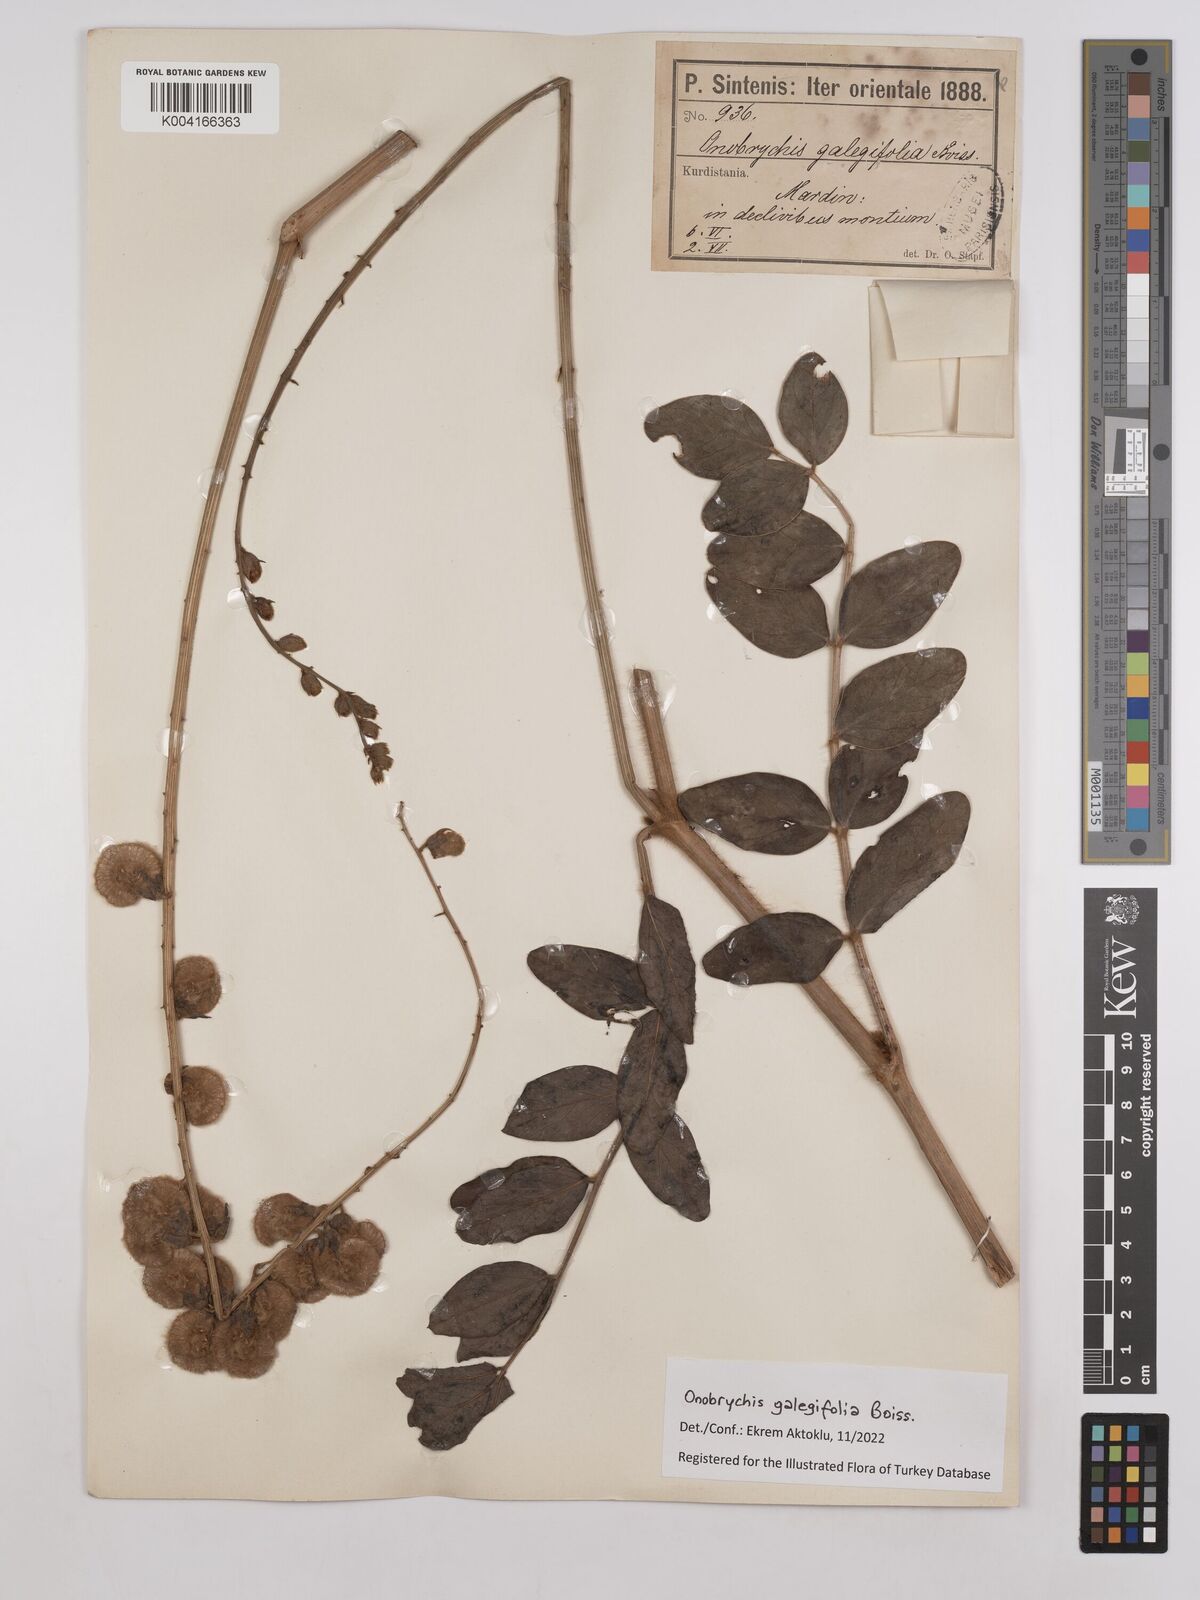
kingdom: Plantae
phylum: Tracheophyta
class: Magnoliopsida
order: Fabales
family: Fabaceae
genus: Onobrychis
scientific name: Onobrychis galegifolia
